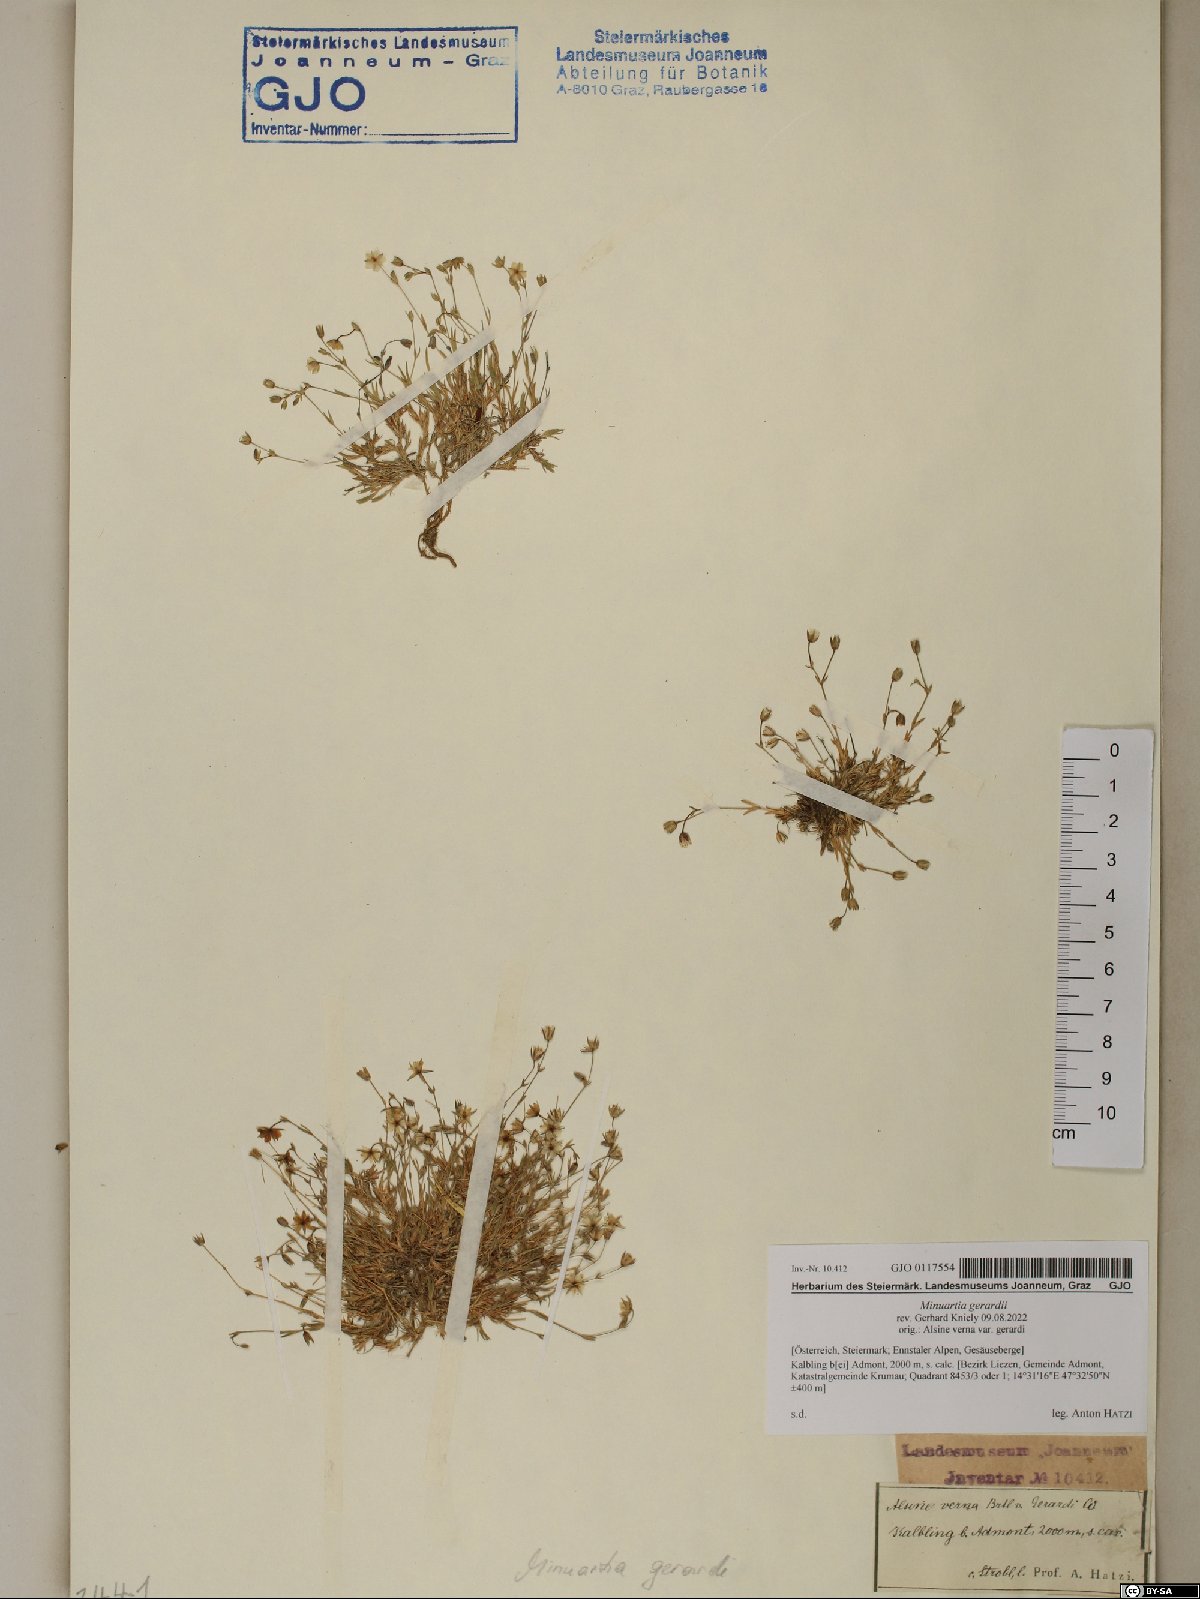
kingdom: Plantae
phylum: Tracheophyta
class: Magnoliopsida
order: Caryophyllales
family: Caryophyllaceae
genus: Sabulina
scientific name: Sabulina verna
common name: Spring sandwort
